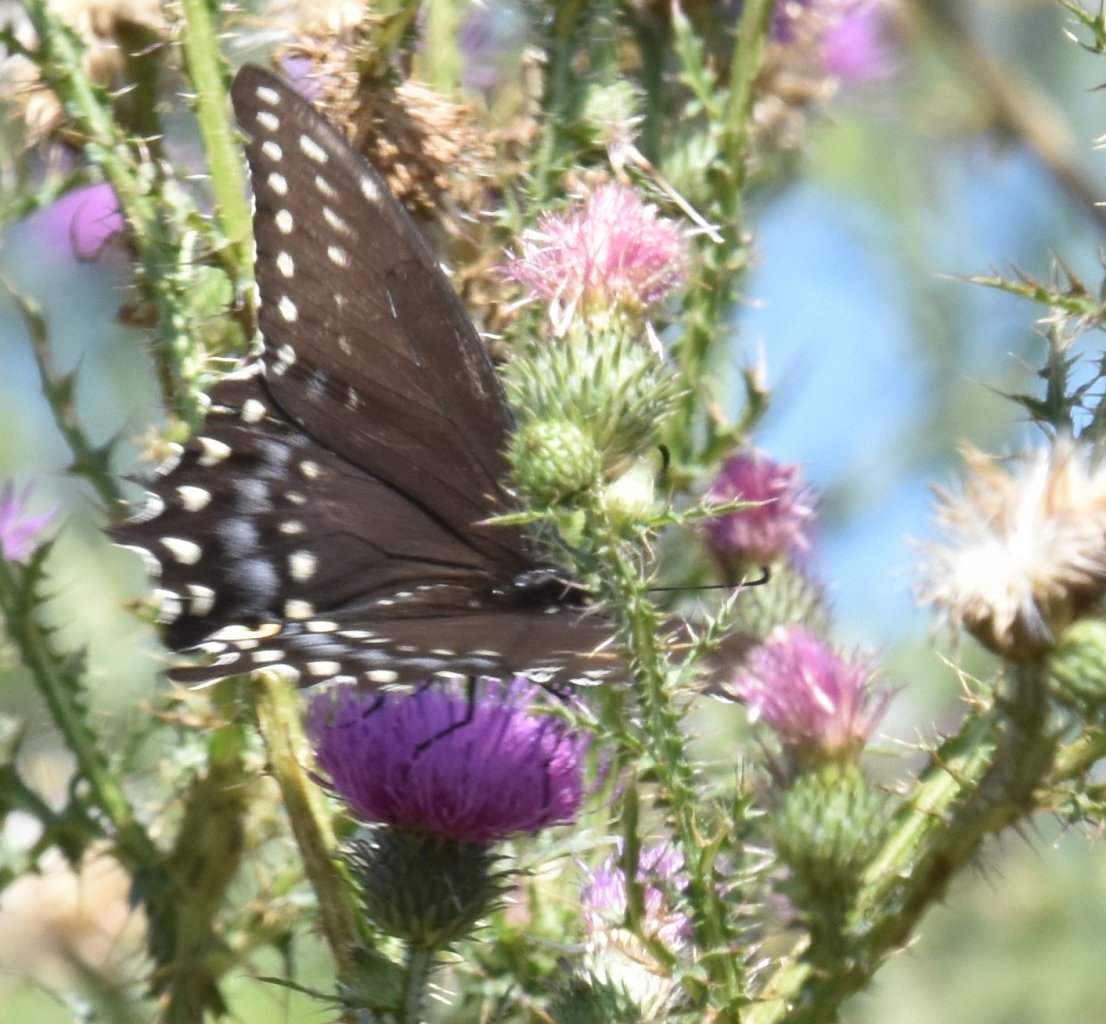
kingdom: Animalia
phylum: Arthropoda
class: Insecta
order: Lepidoptera
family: Papilionidae
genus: Papilio
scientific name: Papilio polyxenes
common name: Black Swallowtail
